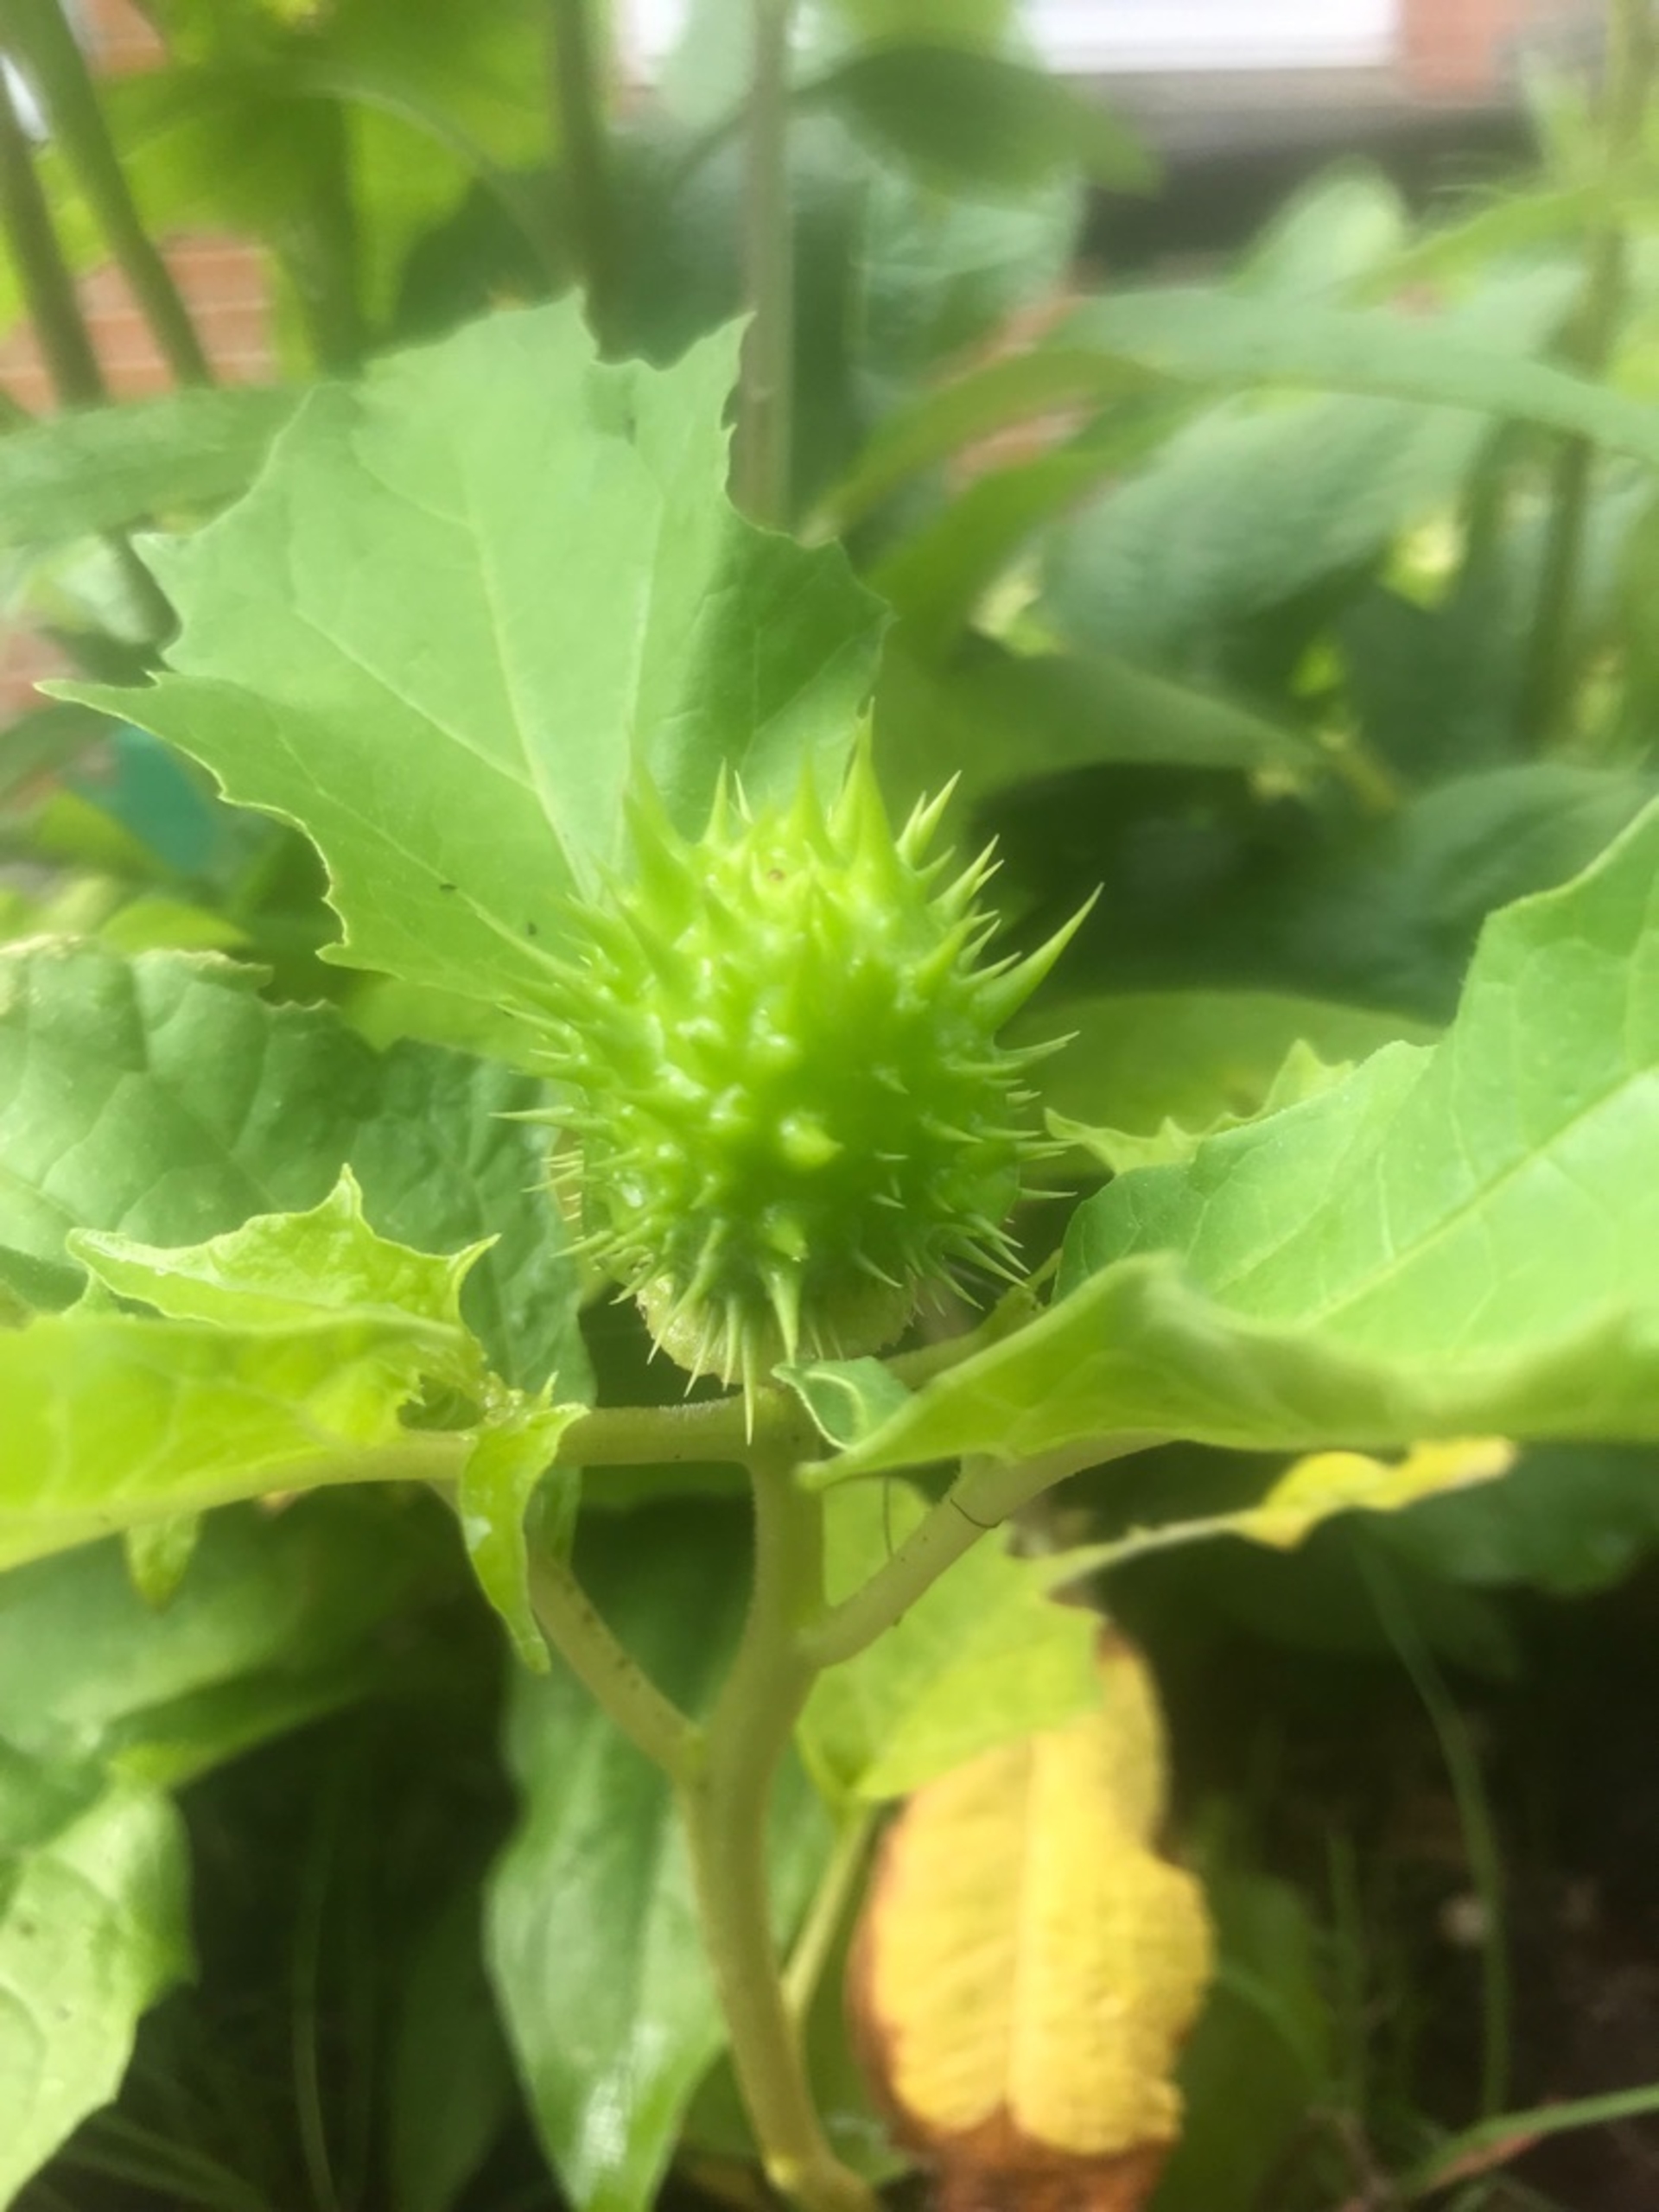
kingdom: Plantae
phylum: Tracheophyta
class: Magnoliopsida
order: Solanales
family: Solanaceae
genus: Datura
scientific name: Datura stramonium
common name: Pigæble
